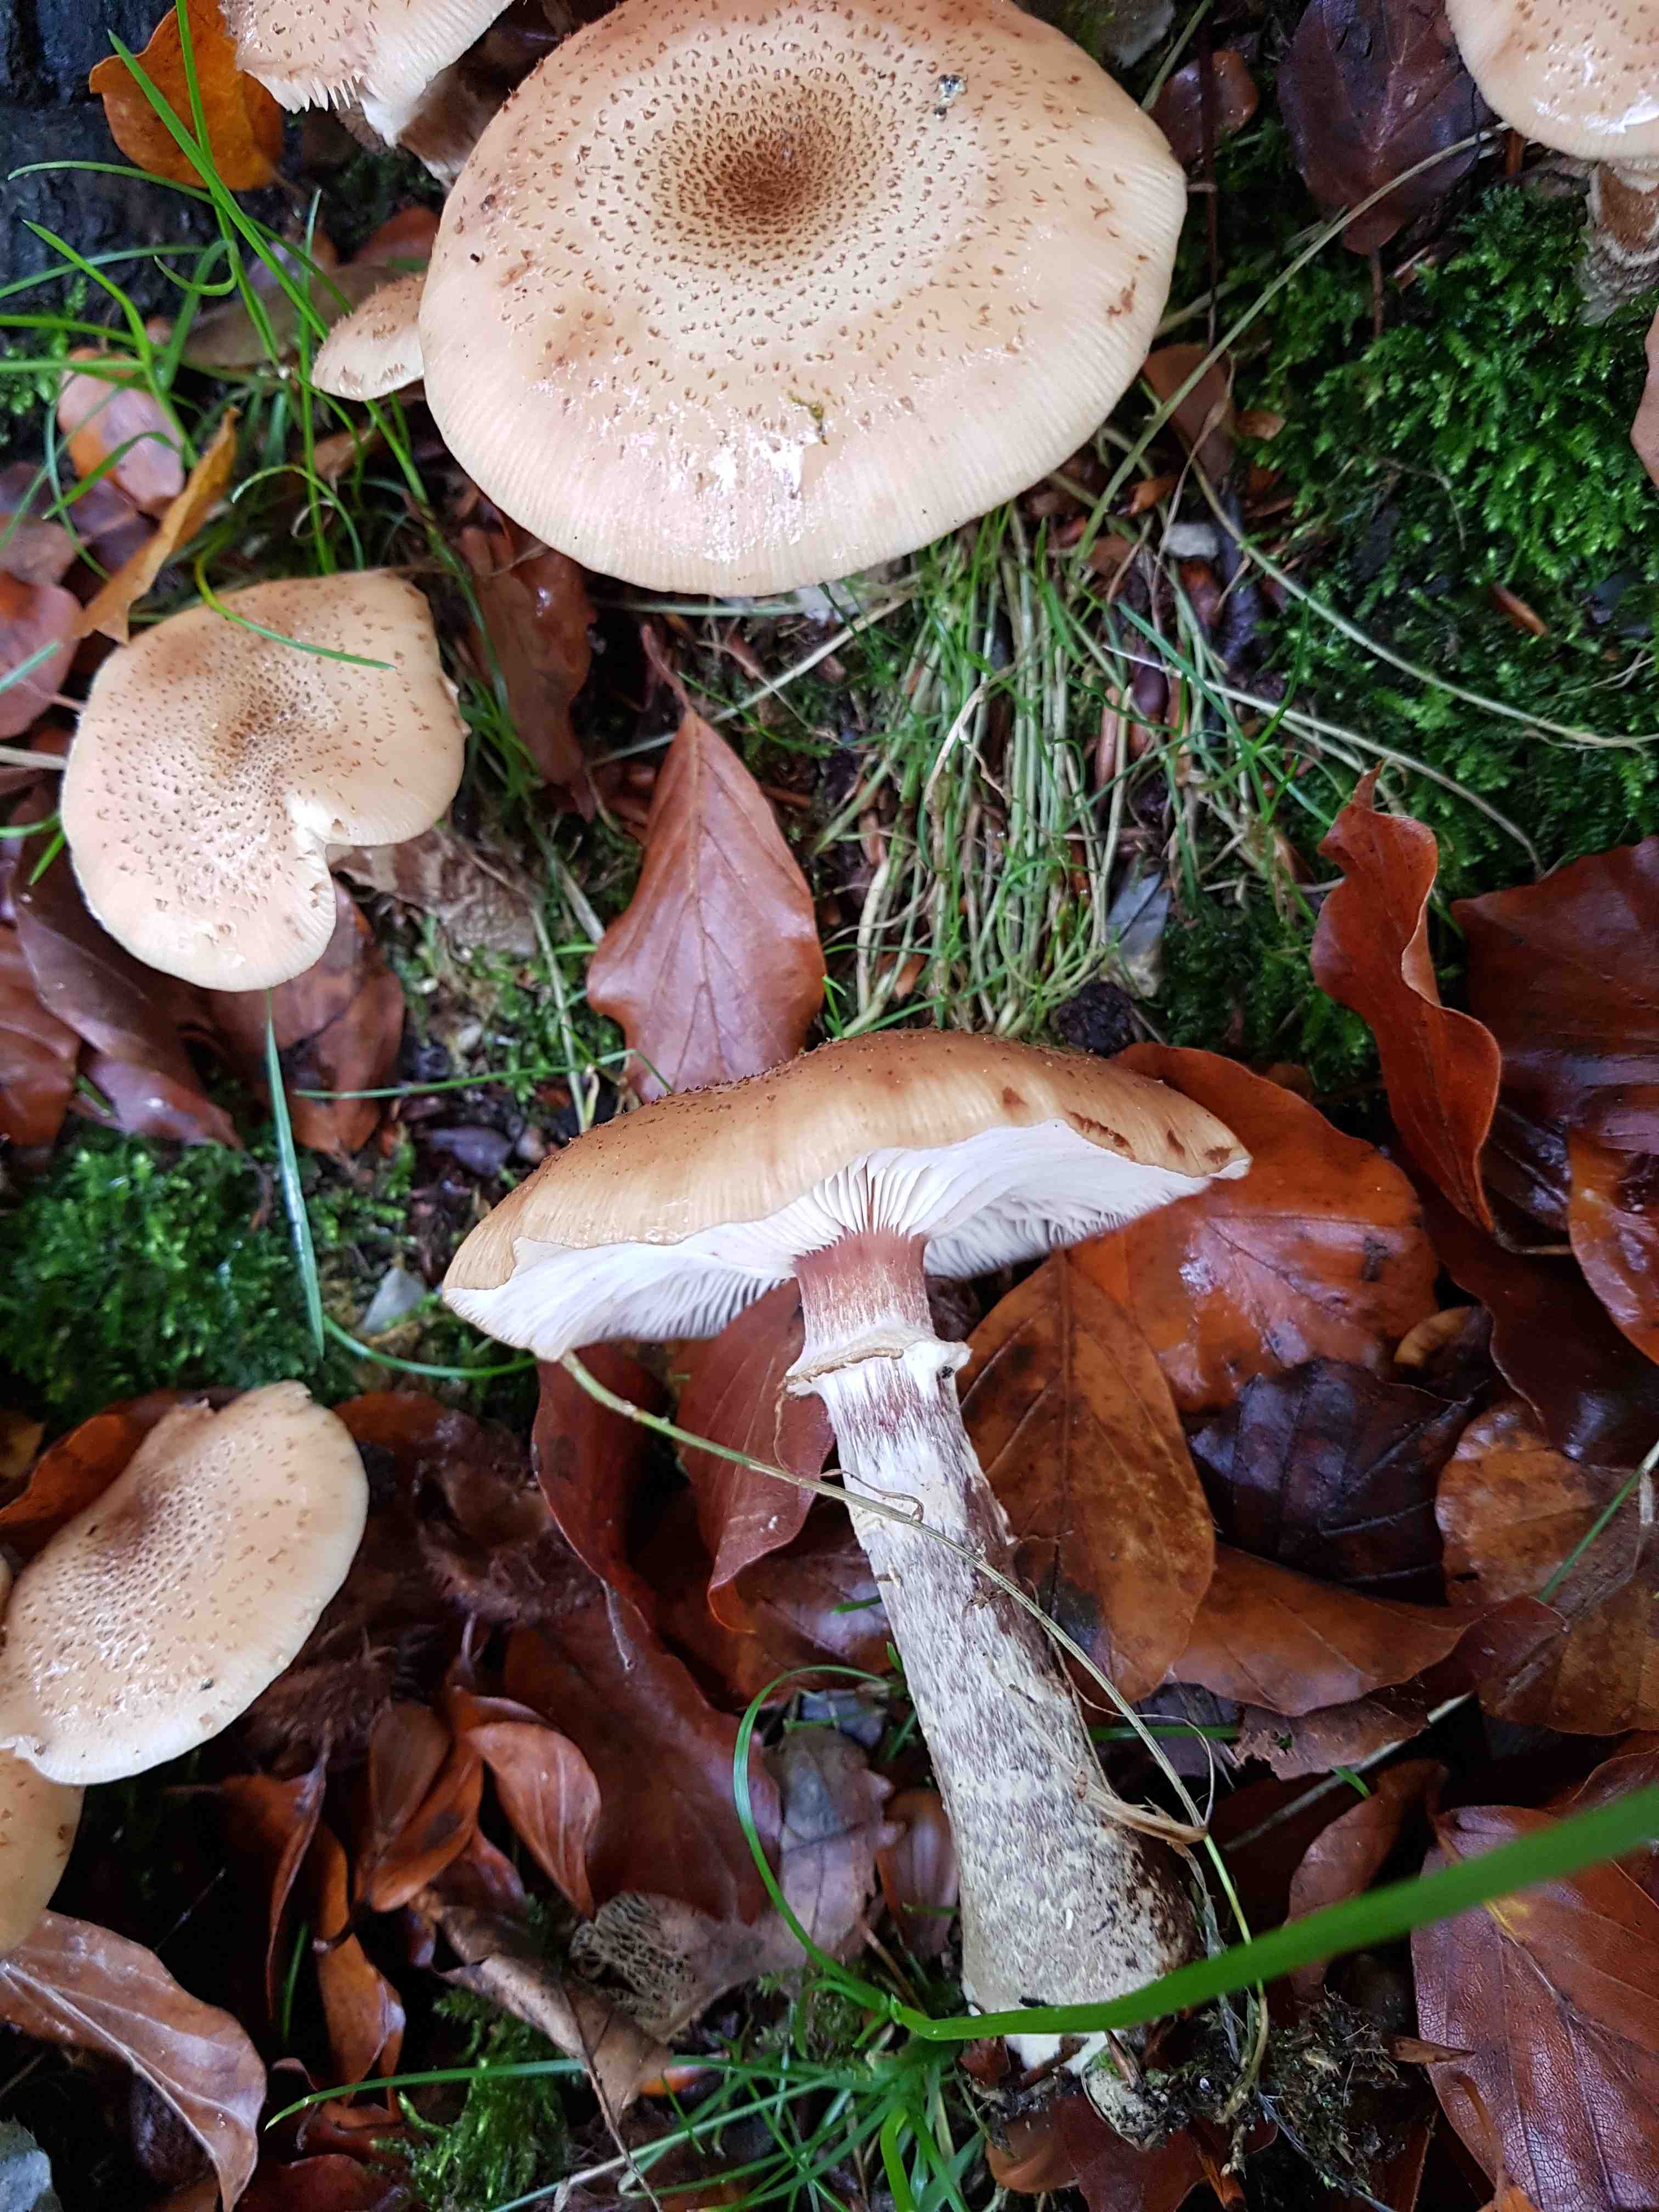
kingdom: Fungi
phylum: Basidiomycota
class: Agaricomycetes
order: Agaricales
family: Physalacriaceae
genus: Armillaria
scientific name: Armillaria
